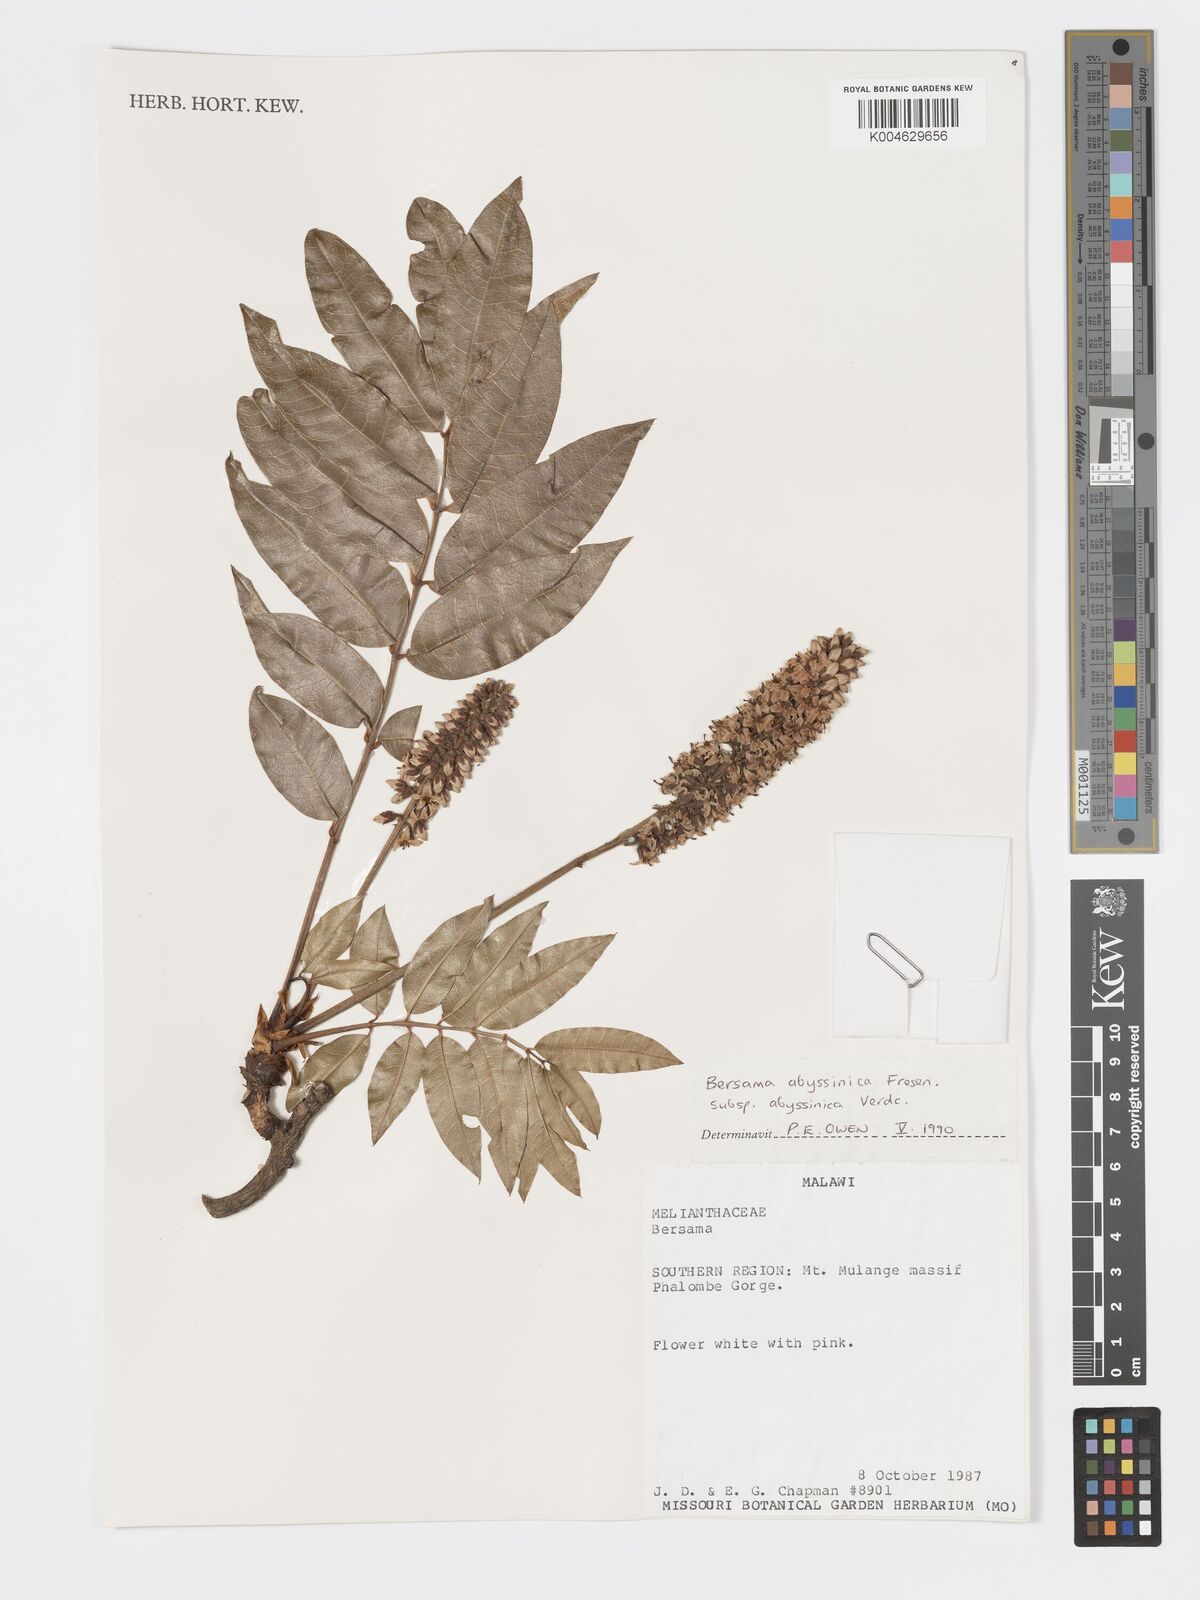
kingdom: Plantae
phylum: Tracheophyta
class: Magnoliopsida
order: Geraniales
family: Francoaceae
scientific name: Francoaceae
